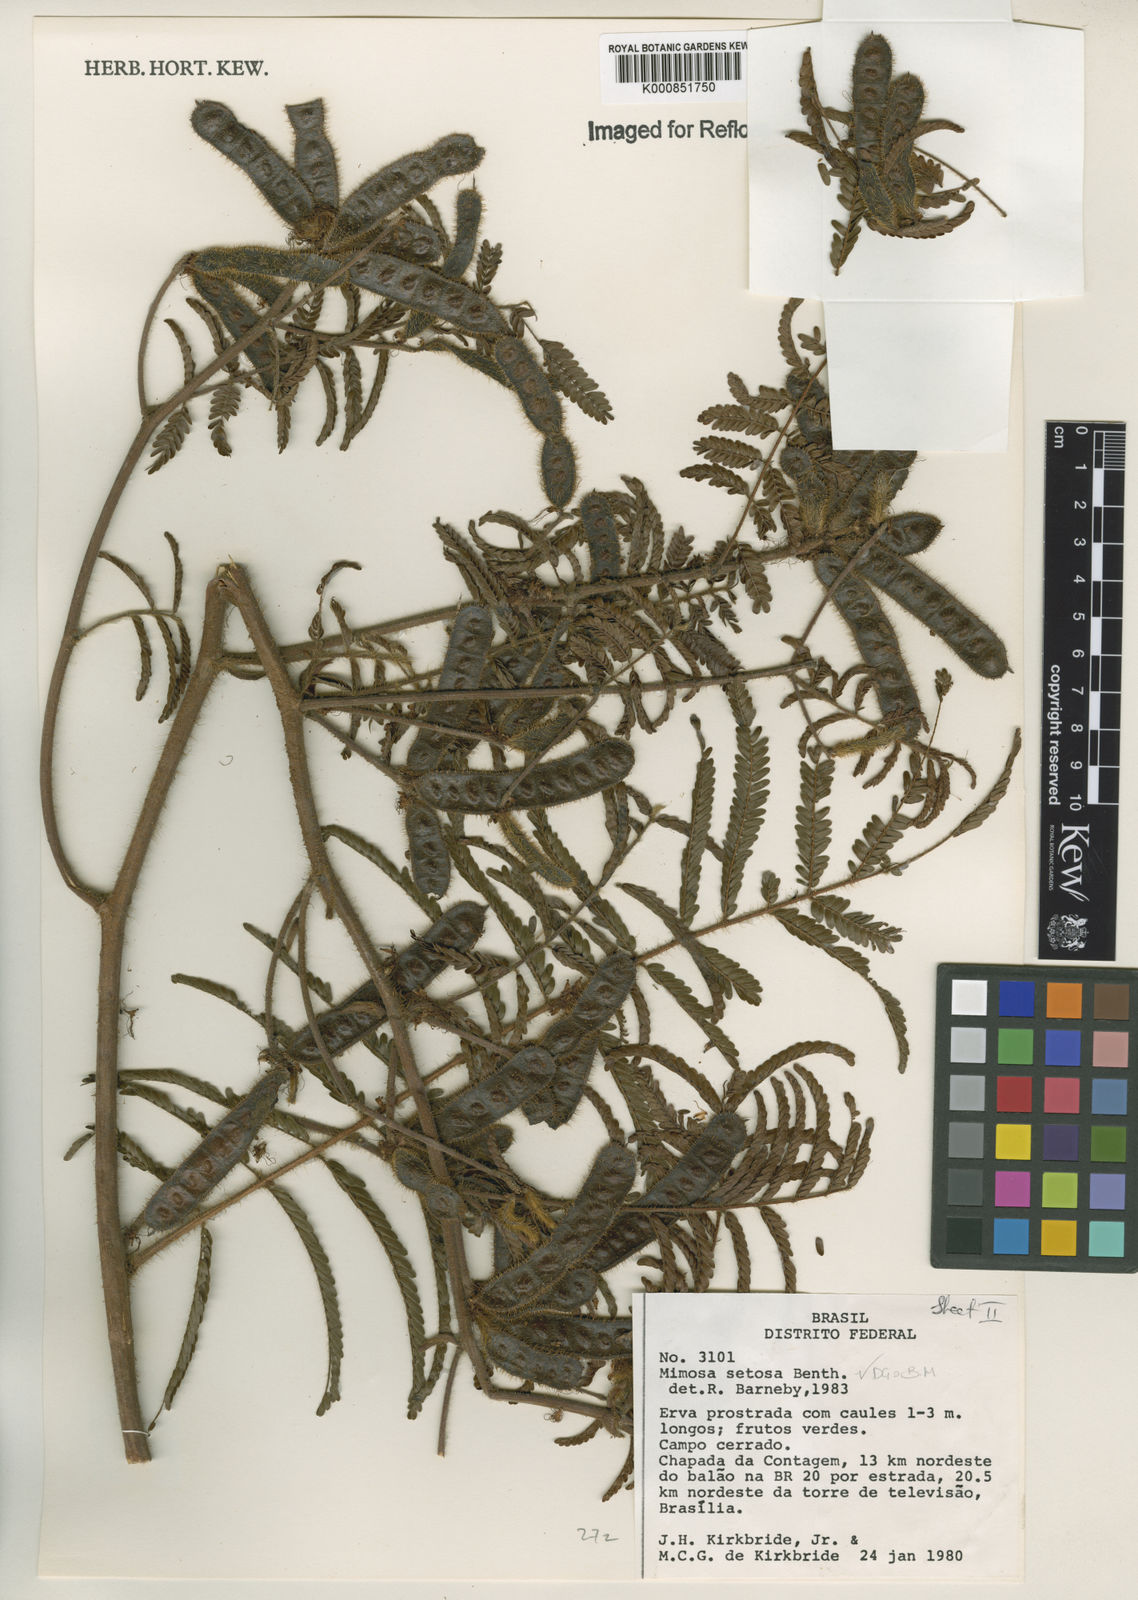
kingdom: Plantae
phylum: Tracheophyta
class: Magnoliopsida
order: Fabales
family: Fabaceae
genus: Mimosa
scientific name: Mimosa setosa
